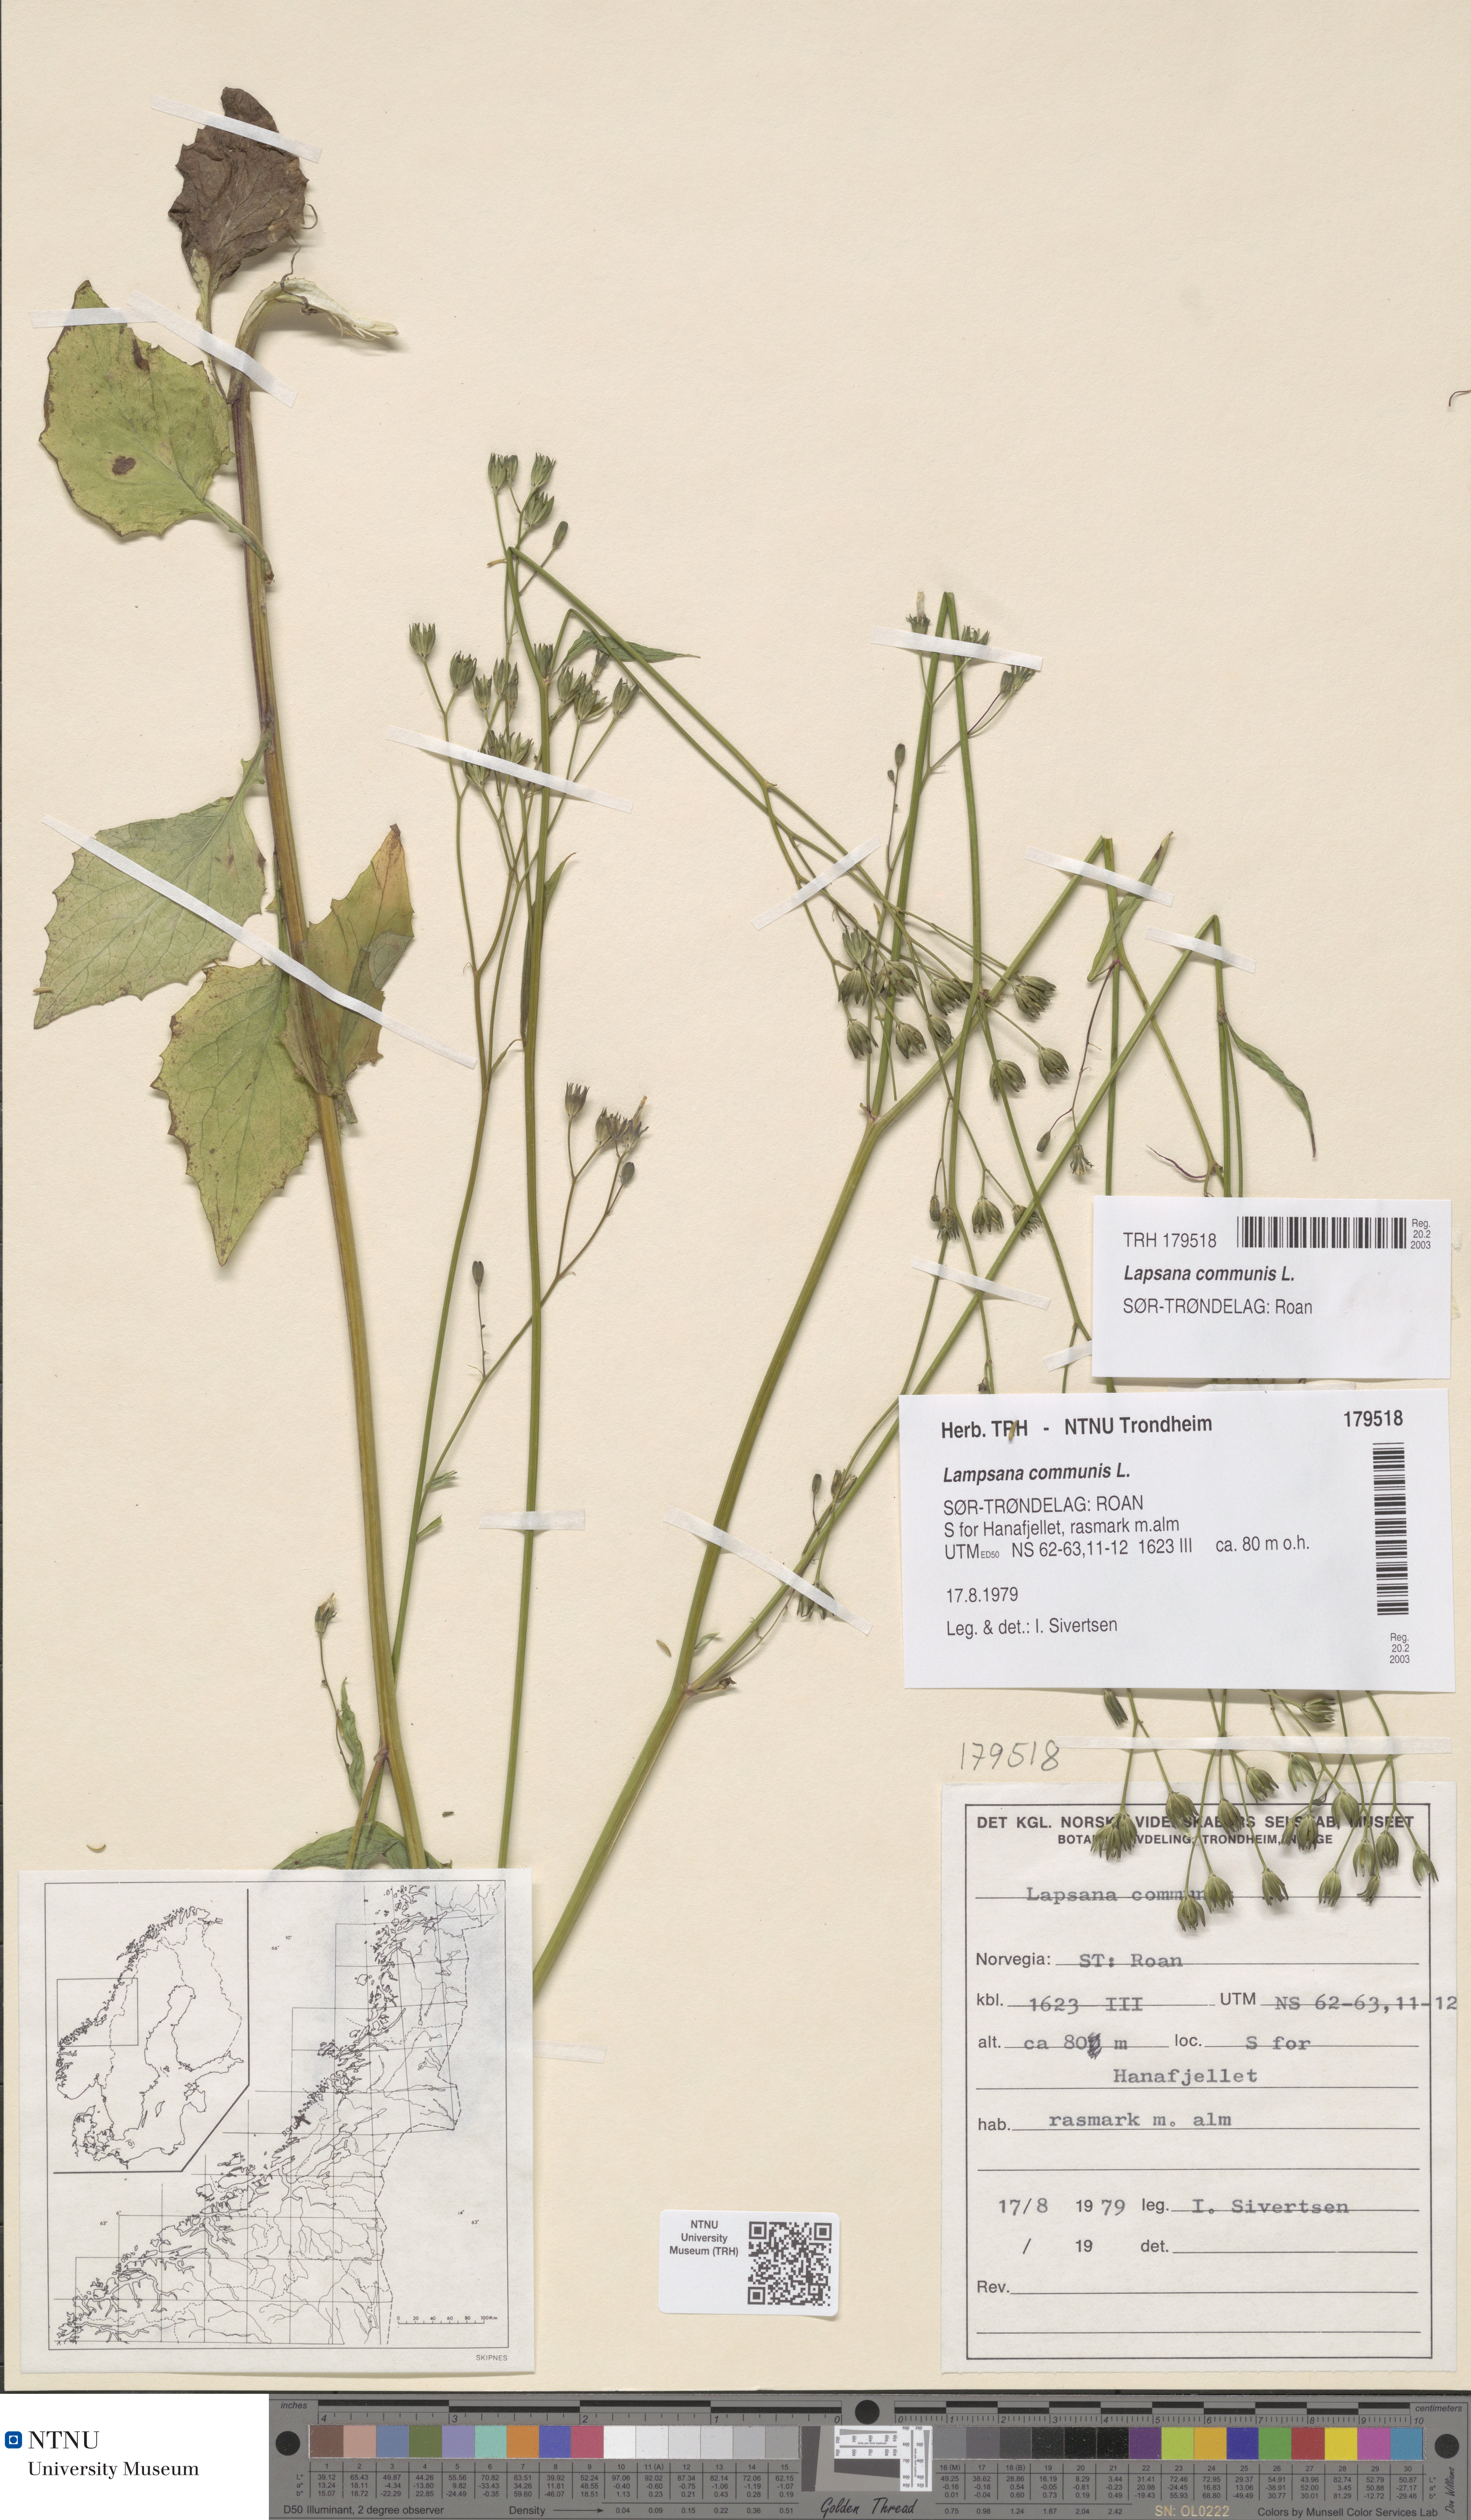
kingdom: Plantae
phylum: Tracheophyta
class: Magnoliopsida
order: Asterales
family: Asteraceae
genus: Lapsana
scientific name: Lapsana communis
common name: Nipplewort
